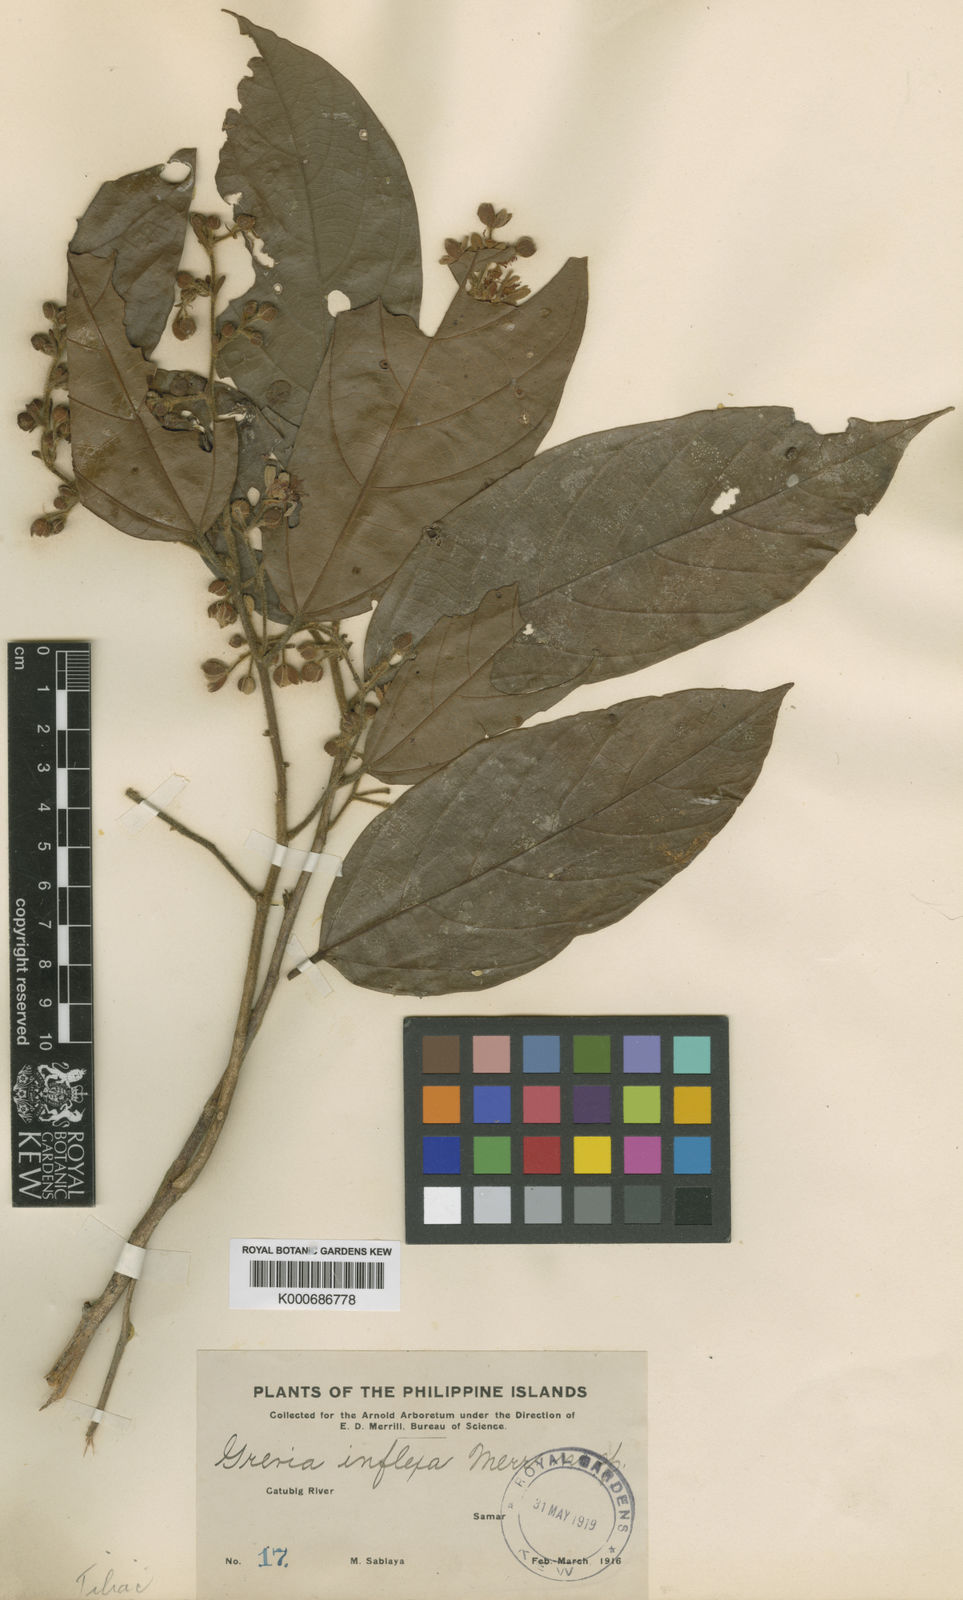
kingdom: Plantae
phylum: Tracheophyta
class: Magnoliopsida
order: Malvales
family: Malvaceae
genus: Microcos
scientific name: Microcos inflexa
